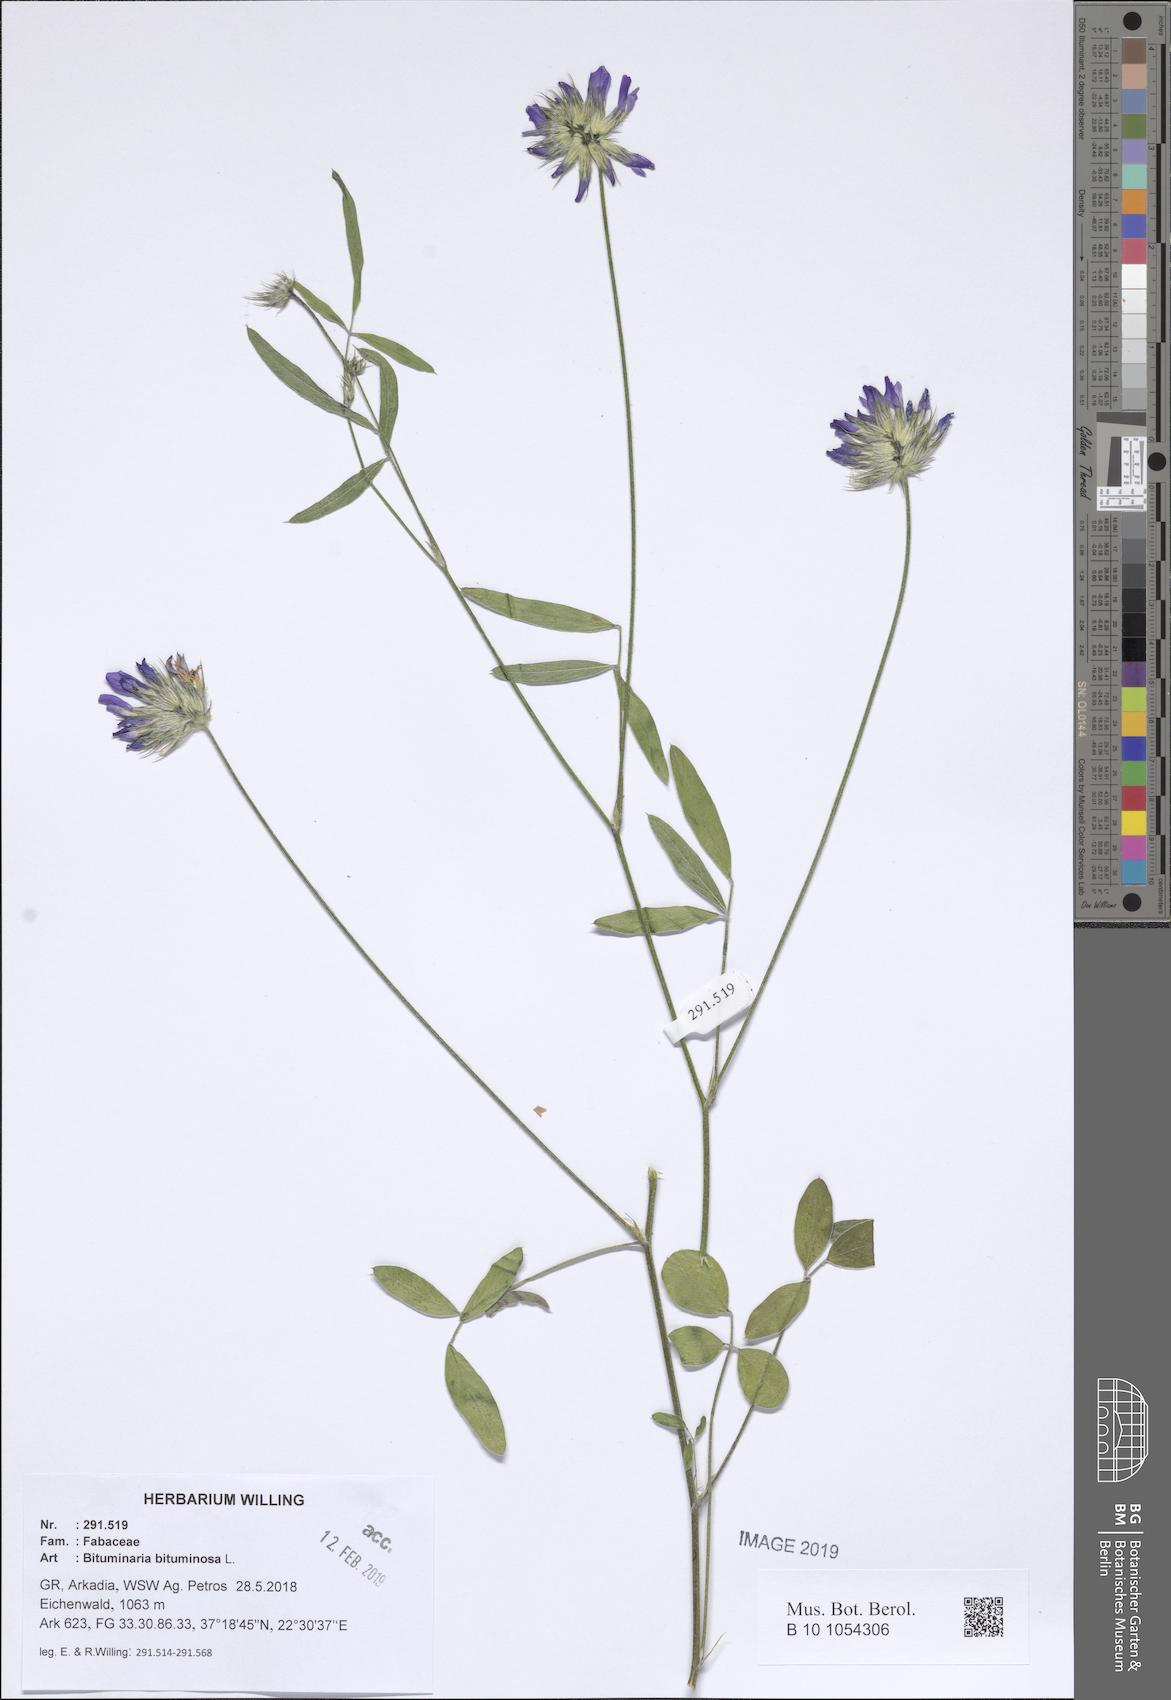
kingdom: Plantae
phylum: Tracheophyta
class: Magnoliopsida
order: Fabales
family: Fabaceae
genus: Bituminaria
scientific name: Bituminaria bituminosa
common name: Arabian pea
